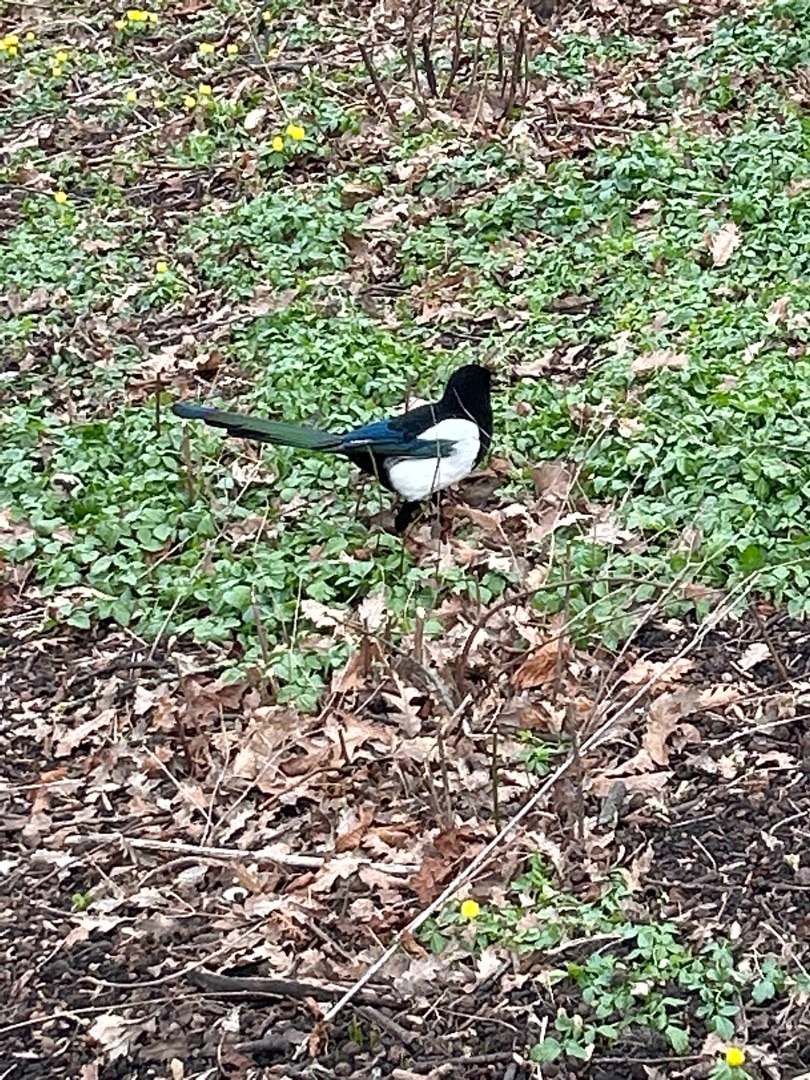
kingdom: Animalia
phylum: Chordata
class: Aves
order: Passeriformes
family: Corvidae
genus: Pica
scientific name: Pica pica
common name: Husskade
